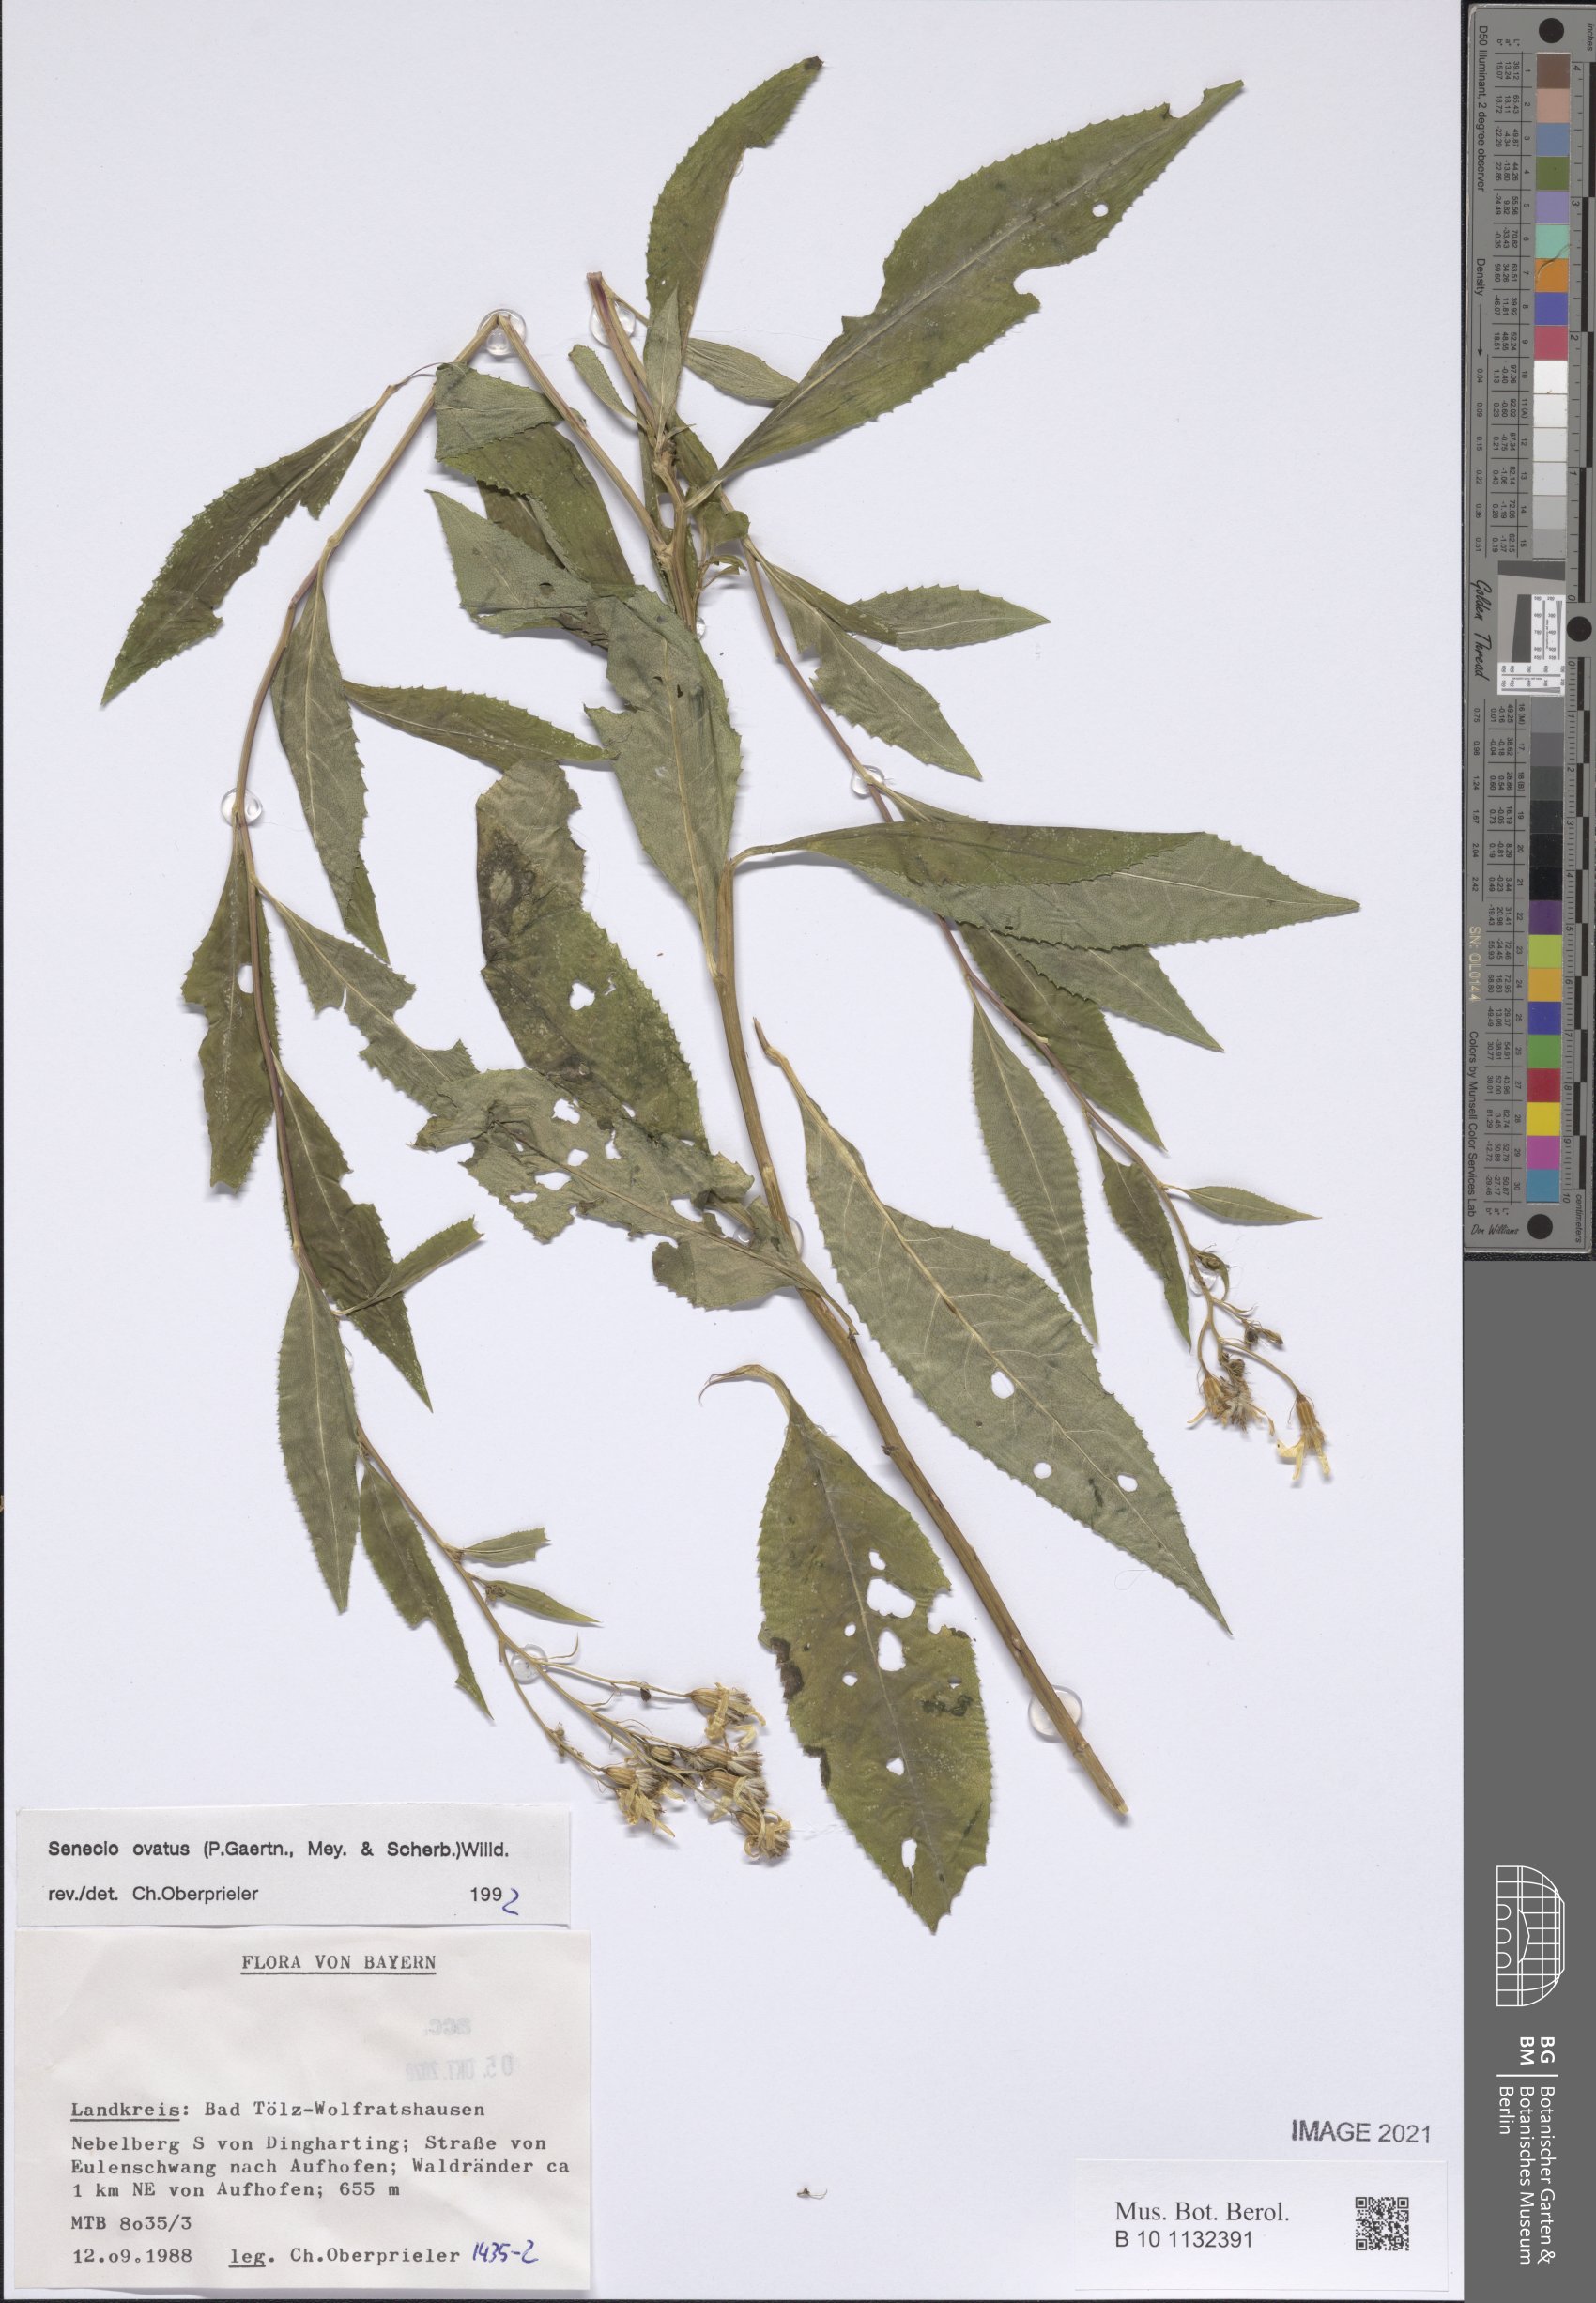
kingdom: Plantae
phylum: Tracheophyta
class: Magnoliopsida
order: Asterales
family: Asteraceae
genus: Senecio
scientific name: Senecio ovatus
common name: Wood ragwort
